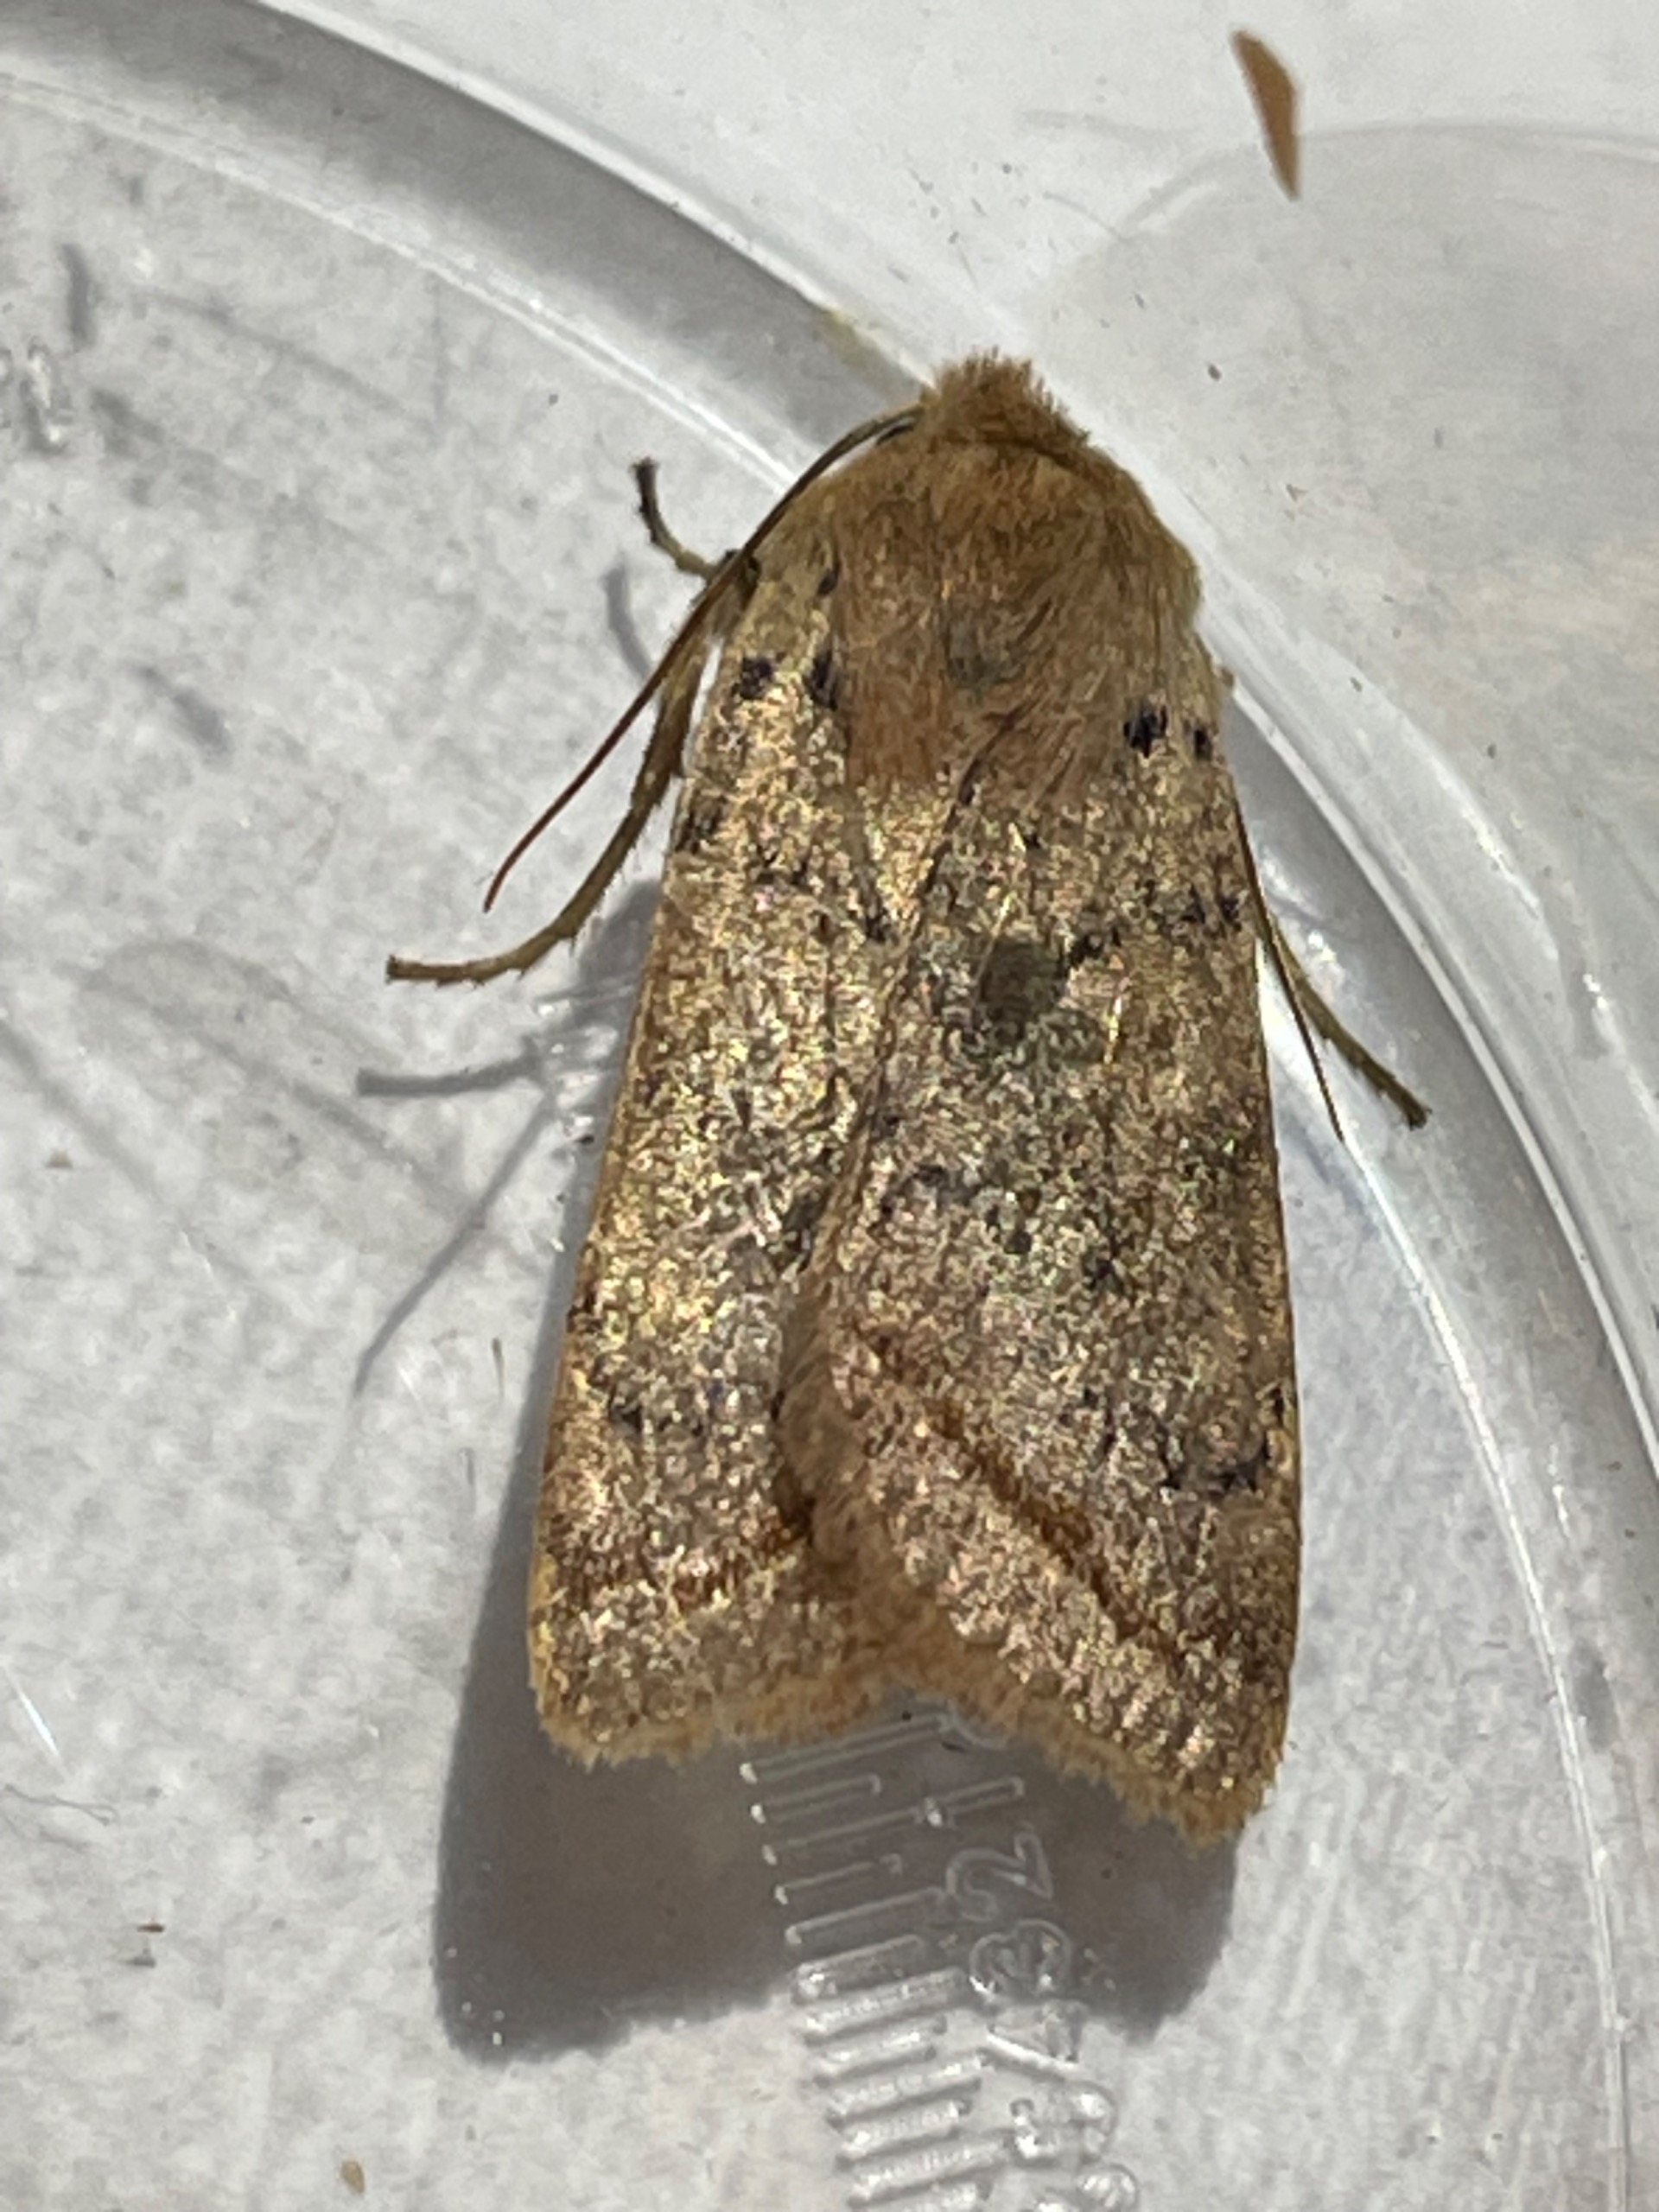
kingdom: Animalia
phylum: Arthropoda
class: Insecta
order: Lepidoptera
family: Noctuidae
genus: Agrochola
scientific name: Agrochola Leptologia macilenta
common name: Mager jordfarveugle
